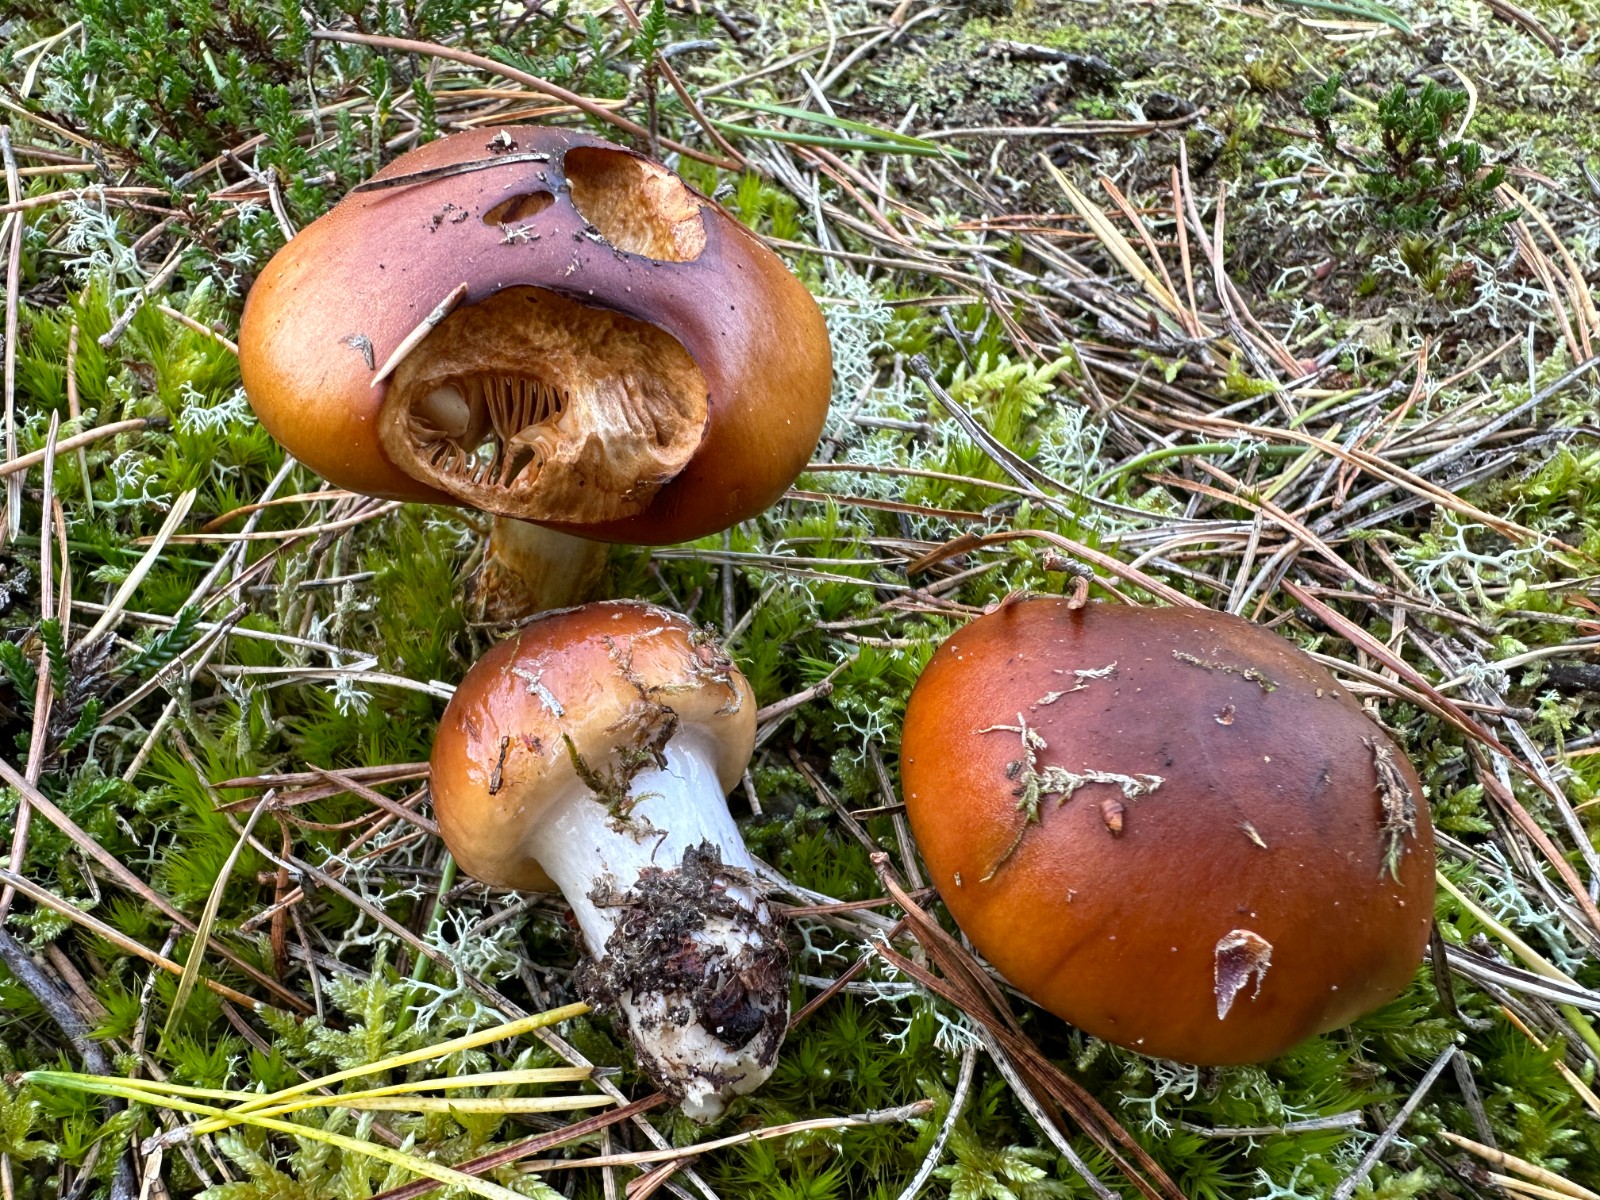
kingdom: Fungi
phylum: Basidiomycota
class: Agaricomycetes
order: Agaricales
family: Cortinariaceae
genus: Cortinarius
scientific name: Cortinarius mucosus
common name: kastaniebrun slørhat
